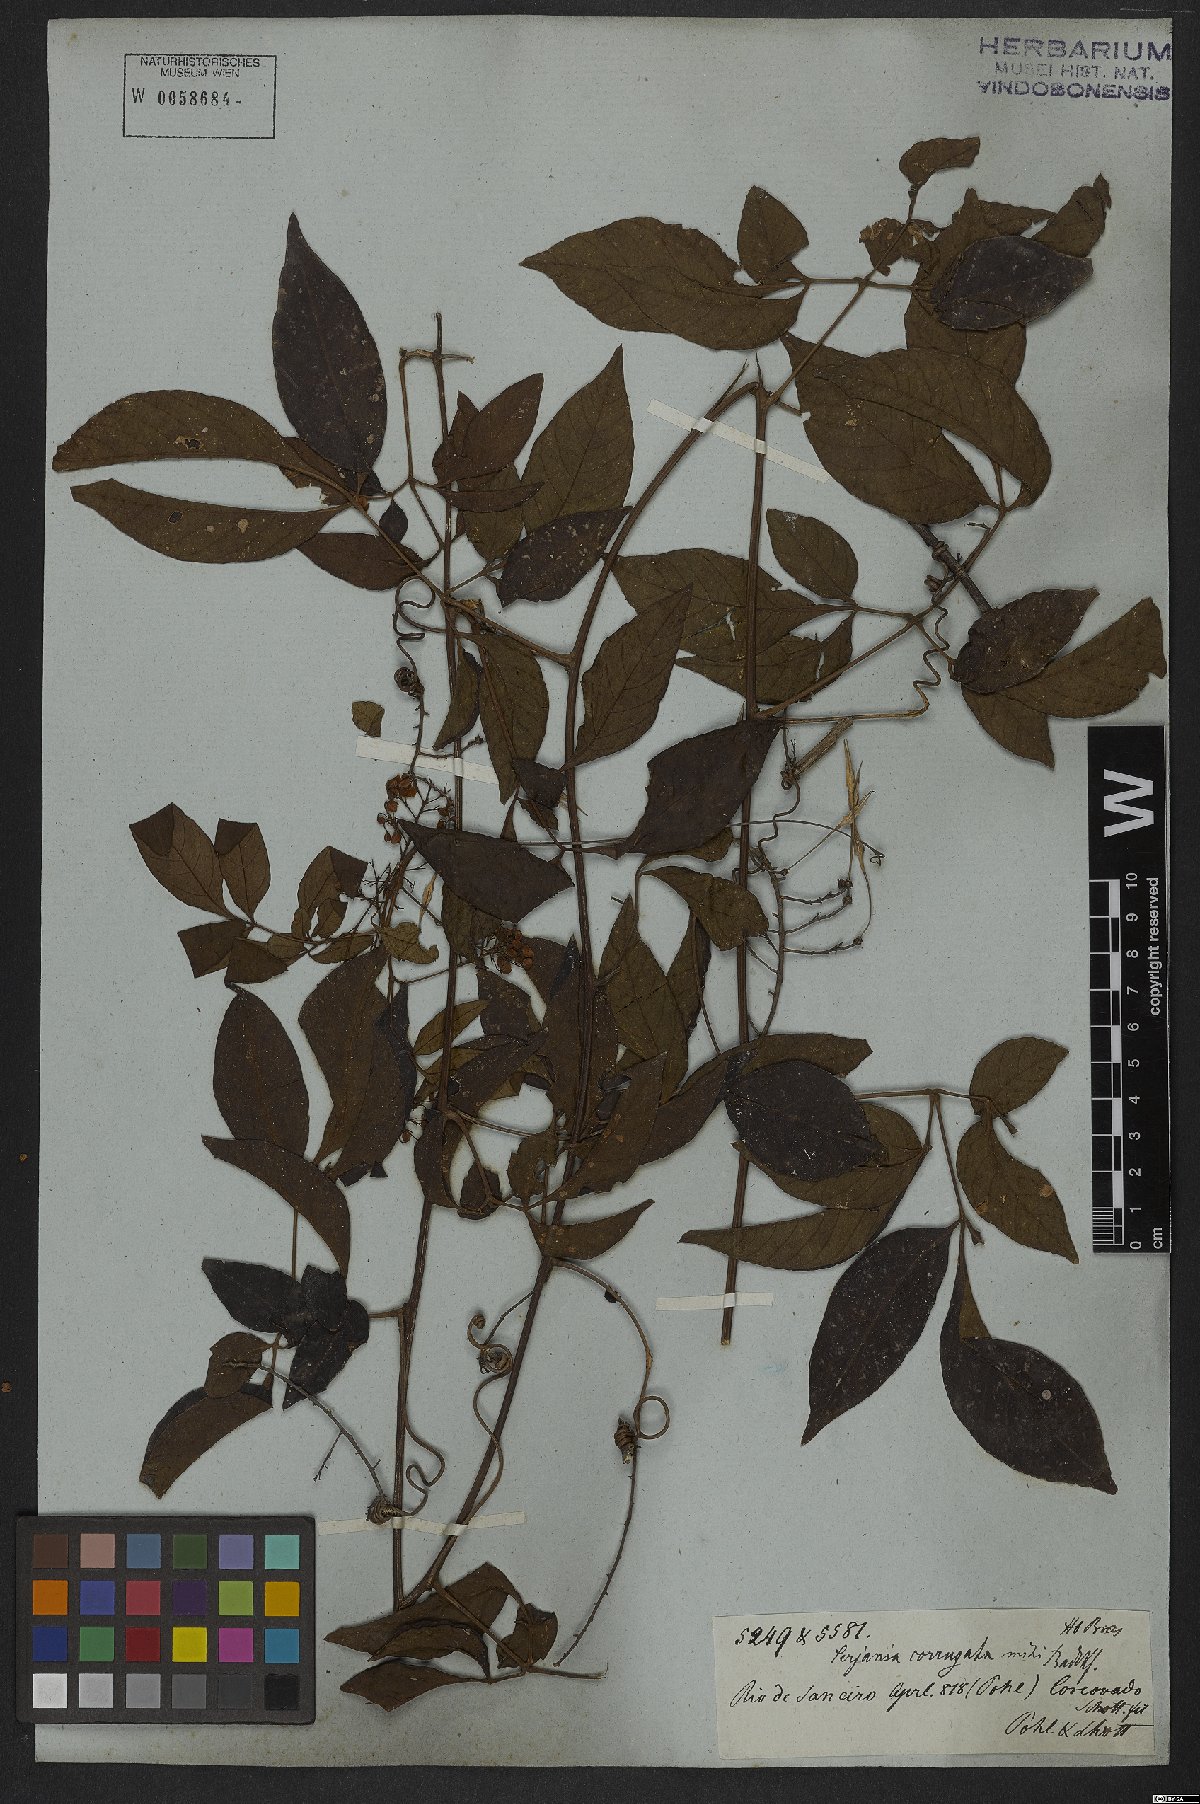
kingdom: Plantae
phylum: Tracheophyta
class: Magnoliopsida
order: Sapindales
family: Sapindaceae
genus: Serjania
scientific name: Serjania corrugata
